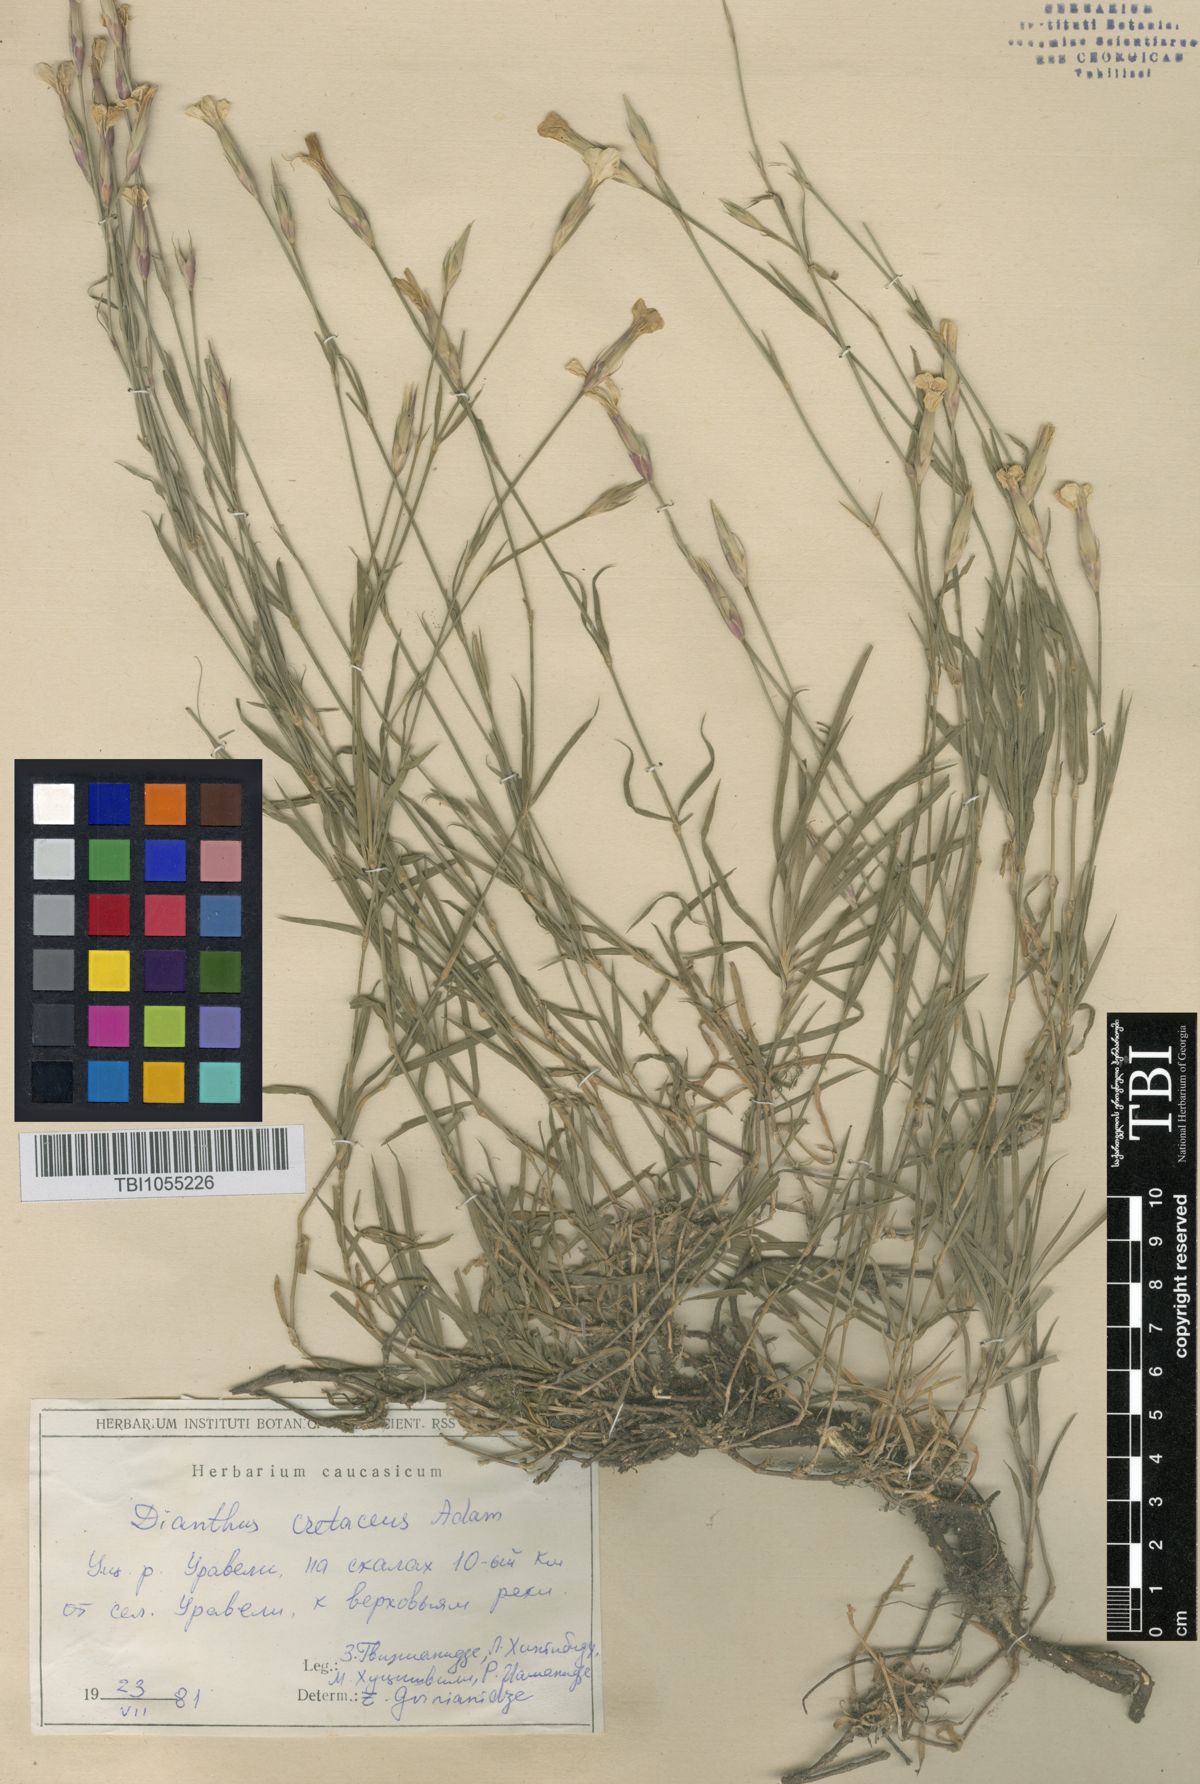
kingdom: Plantae
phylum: Tracheophyta
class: Magnoliopsida
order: Caryophyllales
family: Caryophyllaceae
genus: Dianthus
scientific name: Dianthus cretaceus
